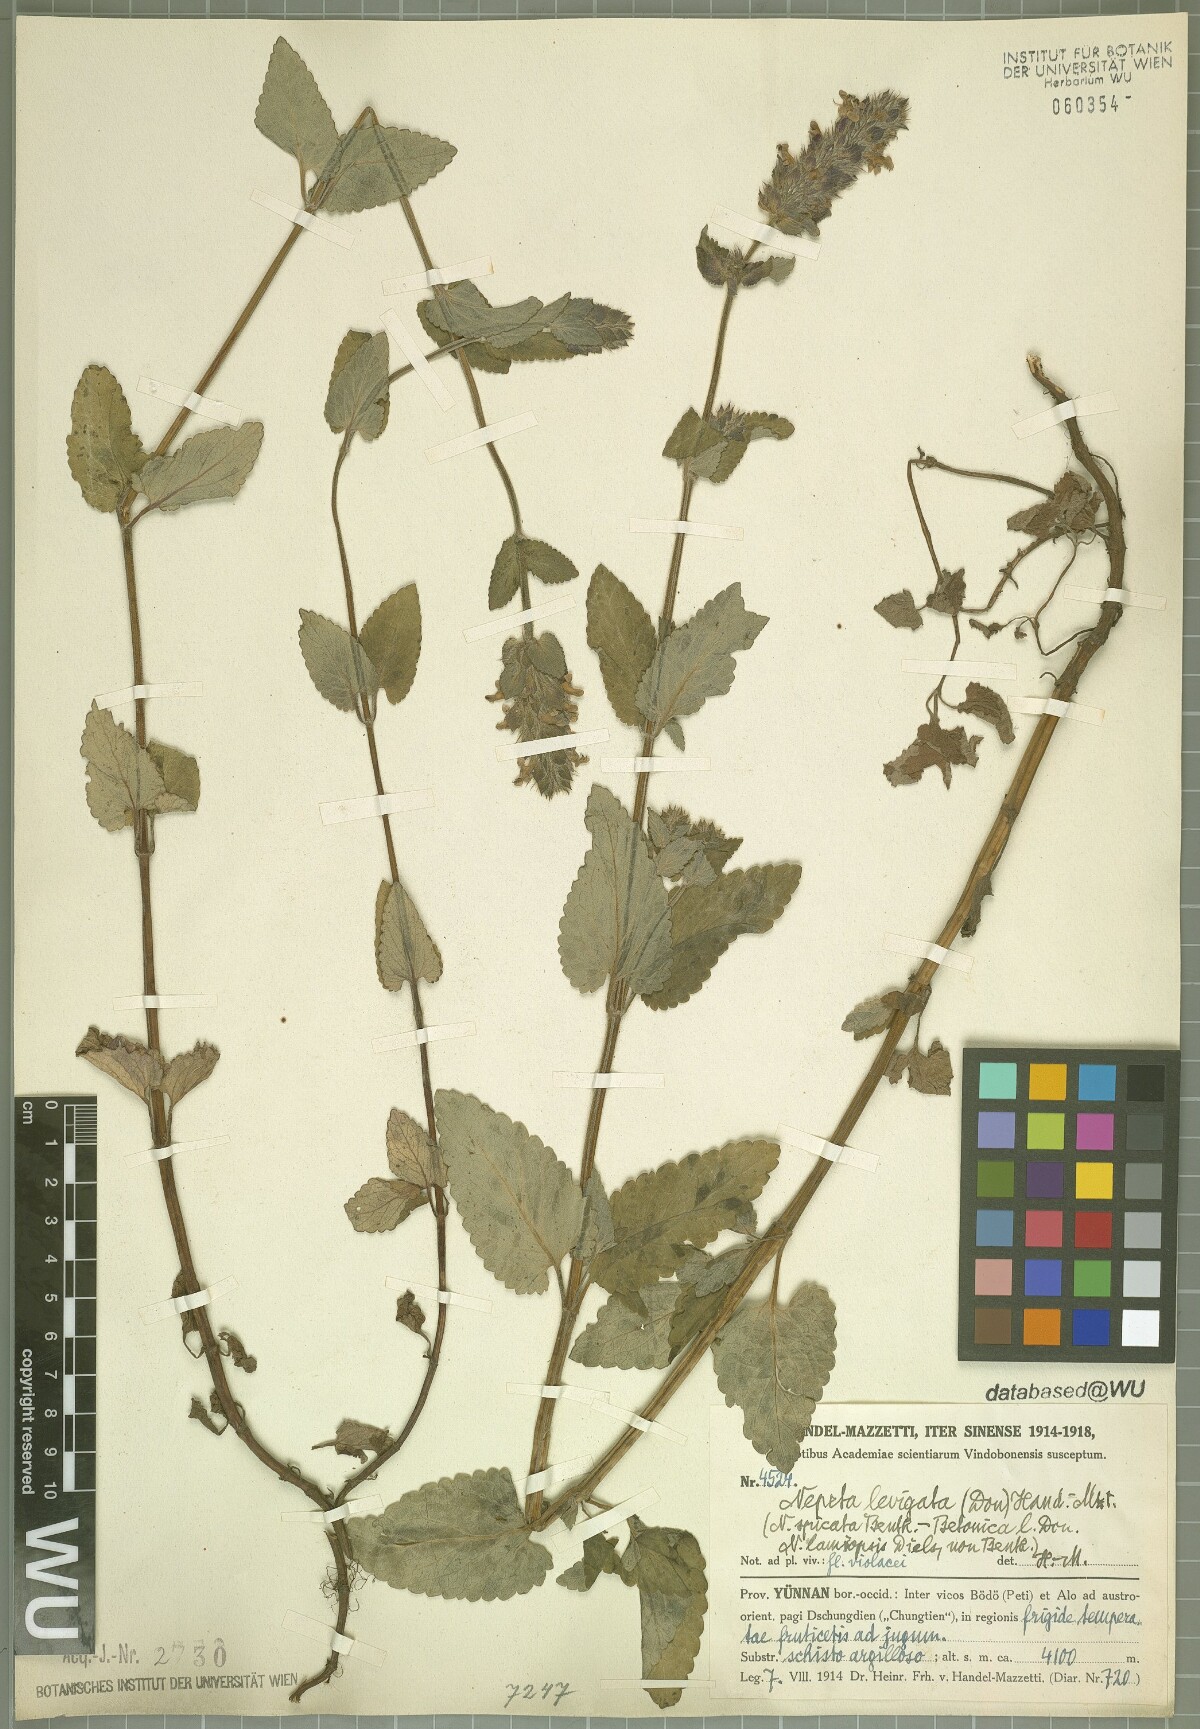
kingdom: Plantae
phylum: Tracheophyta
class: Magnoliopsida
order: Lamiales
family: Lamiaceae
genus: Nepeta
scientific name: Nepeta laevigata
